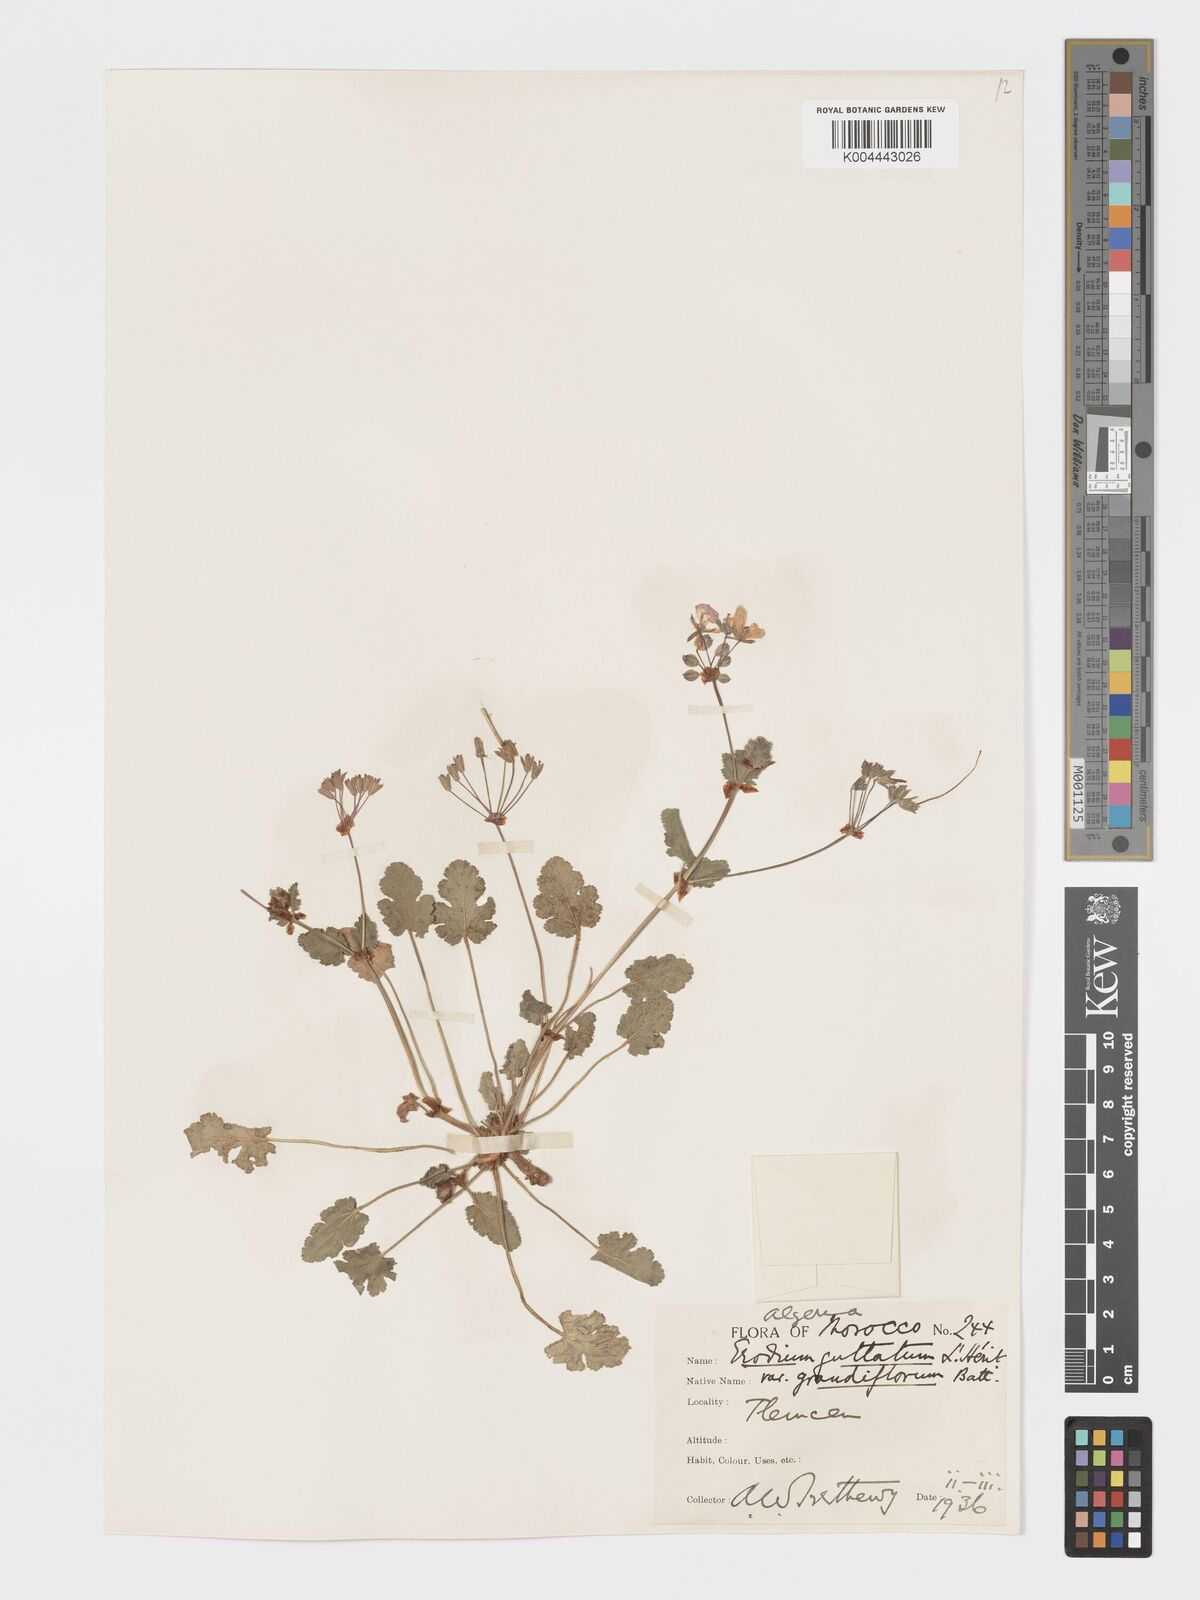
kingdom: Plantae
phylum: Tracheophyta
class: Magnoliopsida
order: Geraniales
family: Geraniaceae
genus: Erodium
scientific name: Erodium guttatum
